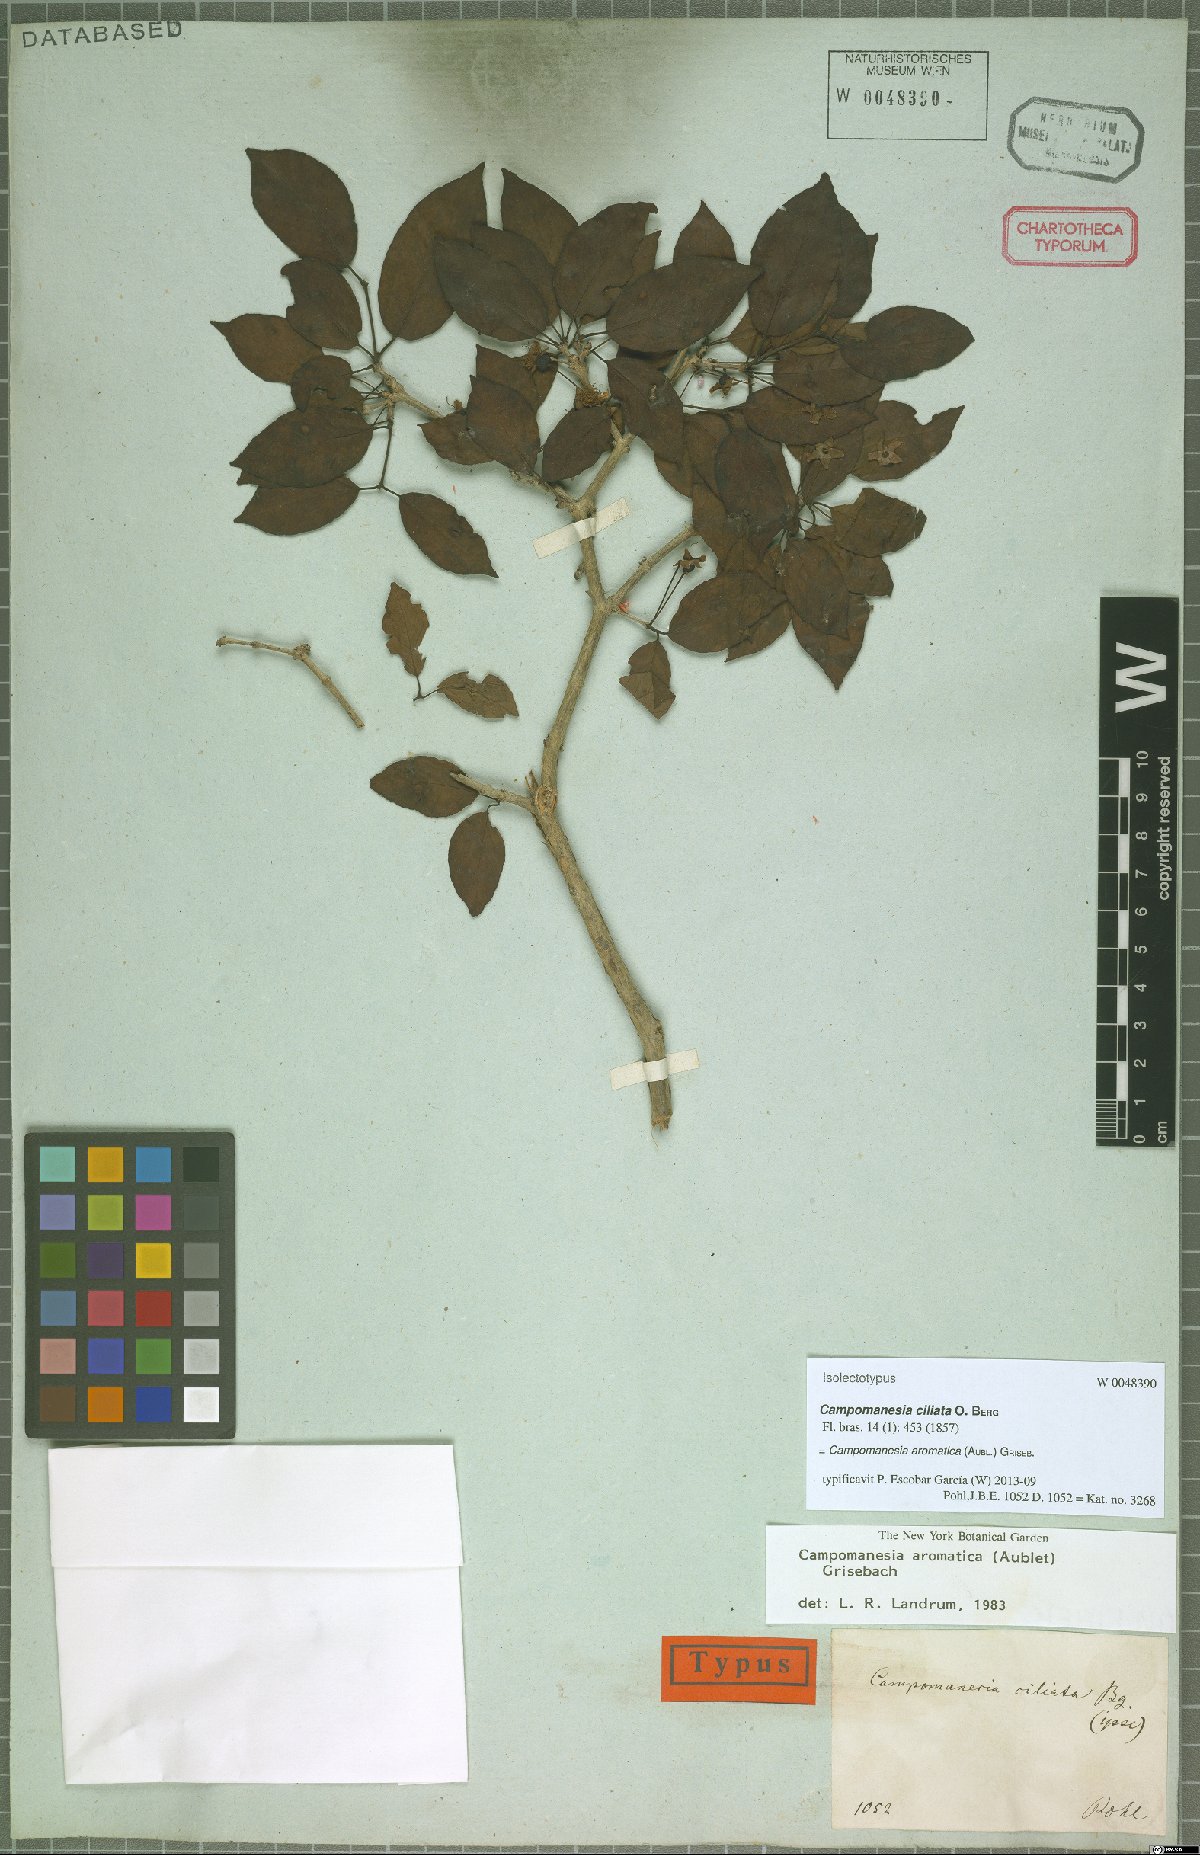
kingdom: Plantae
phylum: Tracheophyta
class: Magnoliopsida
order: Myrtales
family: Myrtaceae
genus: Campomanesia
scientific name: Campomanesia aromatica
